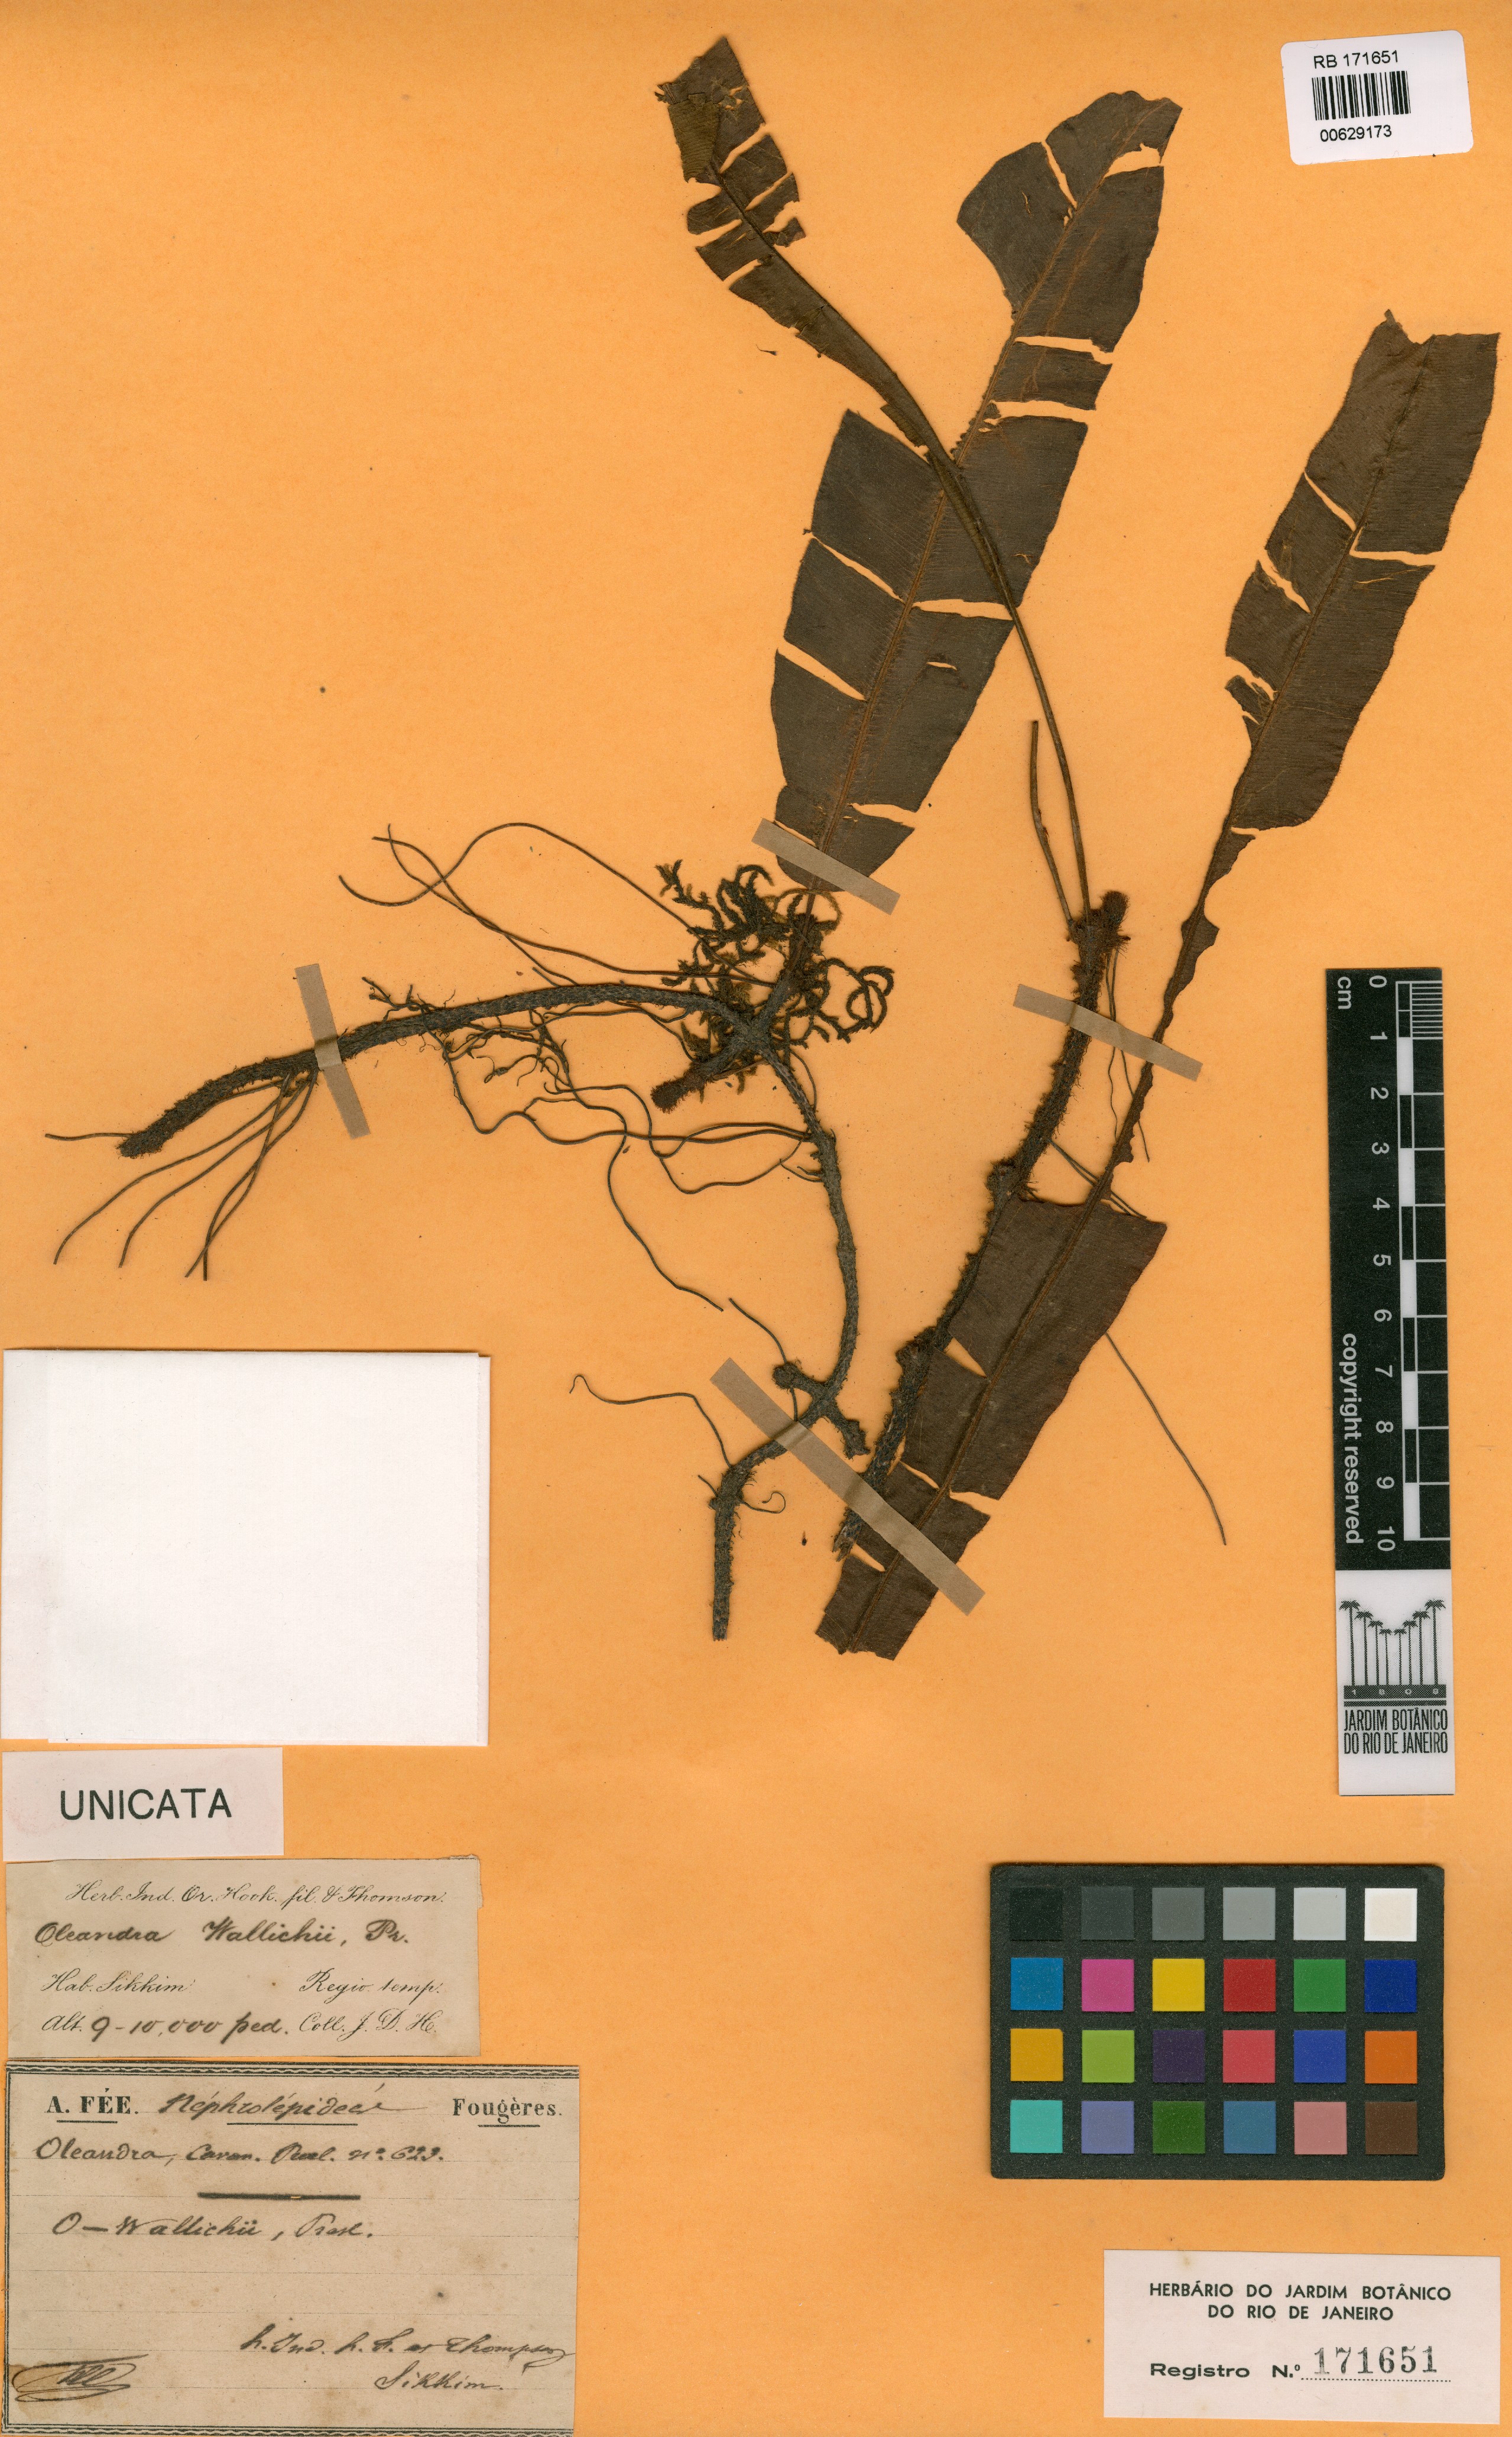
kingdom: Plantae
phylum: Tracheophyta
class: Polypodiopsida
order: Polypodiales
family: Oleandraceae
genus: Oleandra
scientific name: Oleandra wallichii
